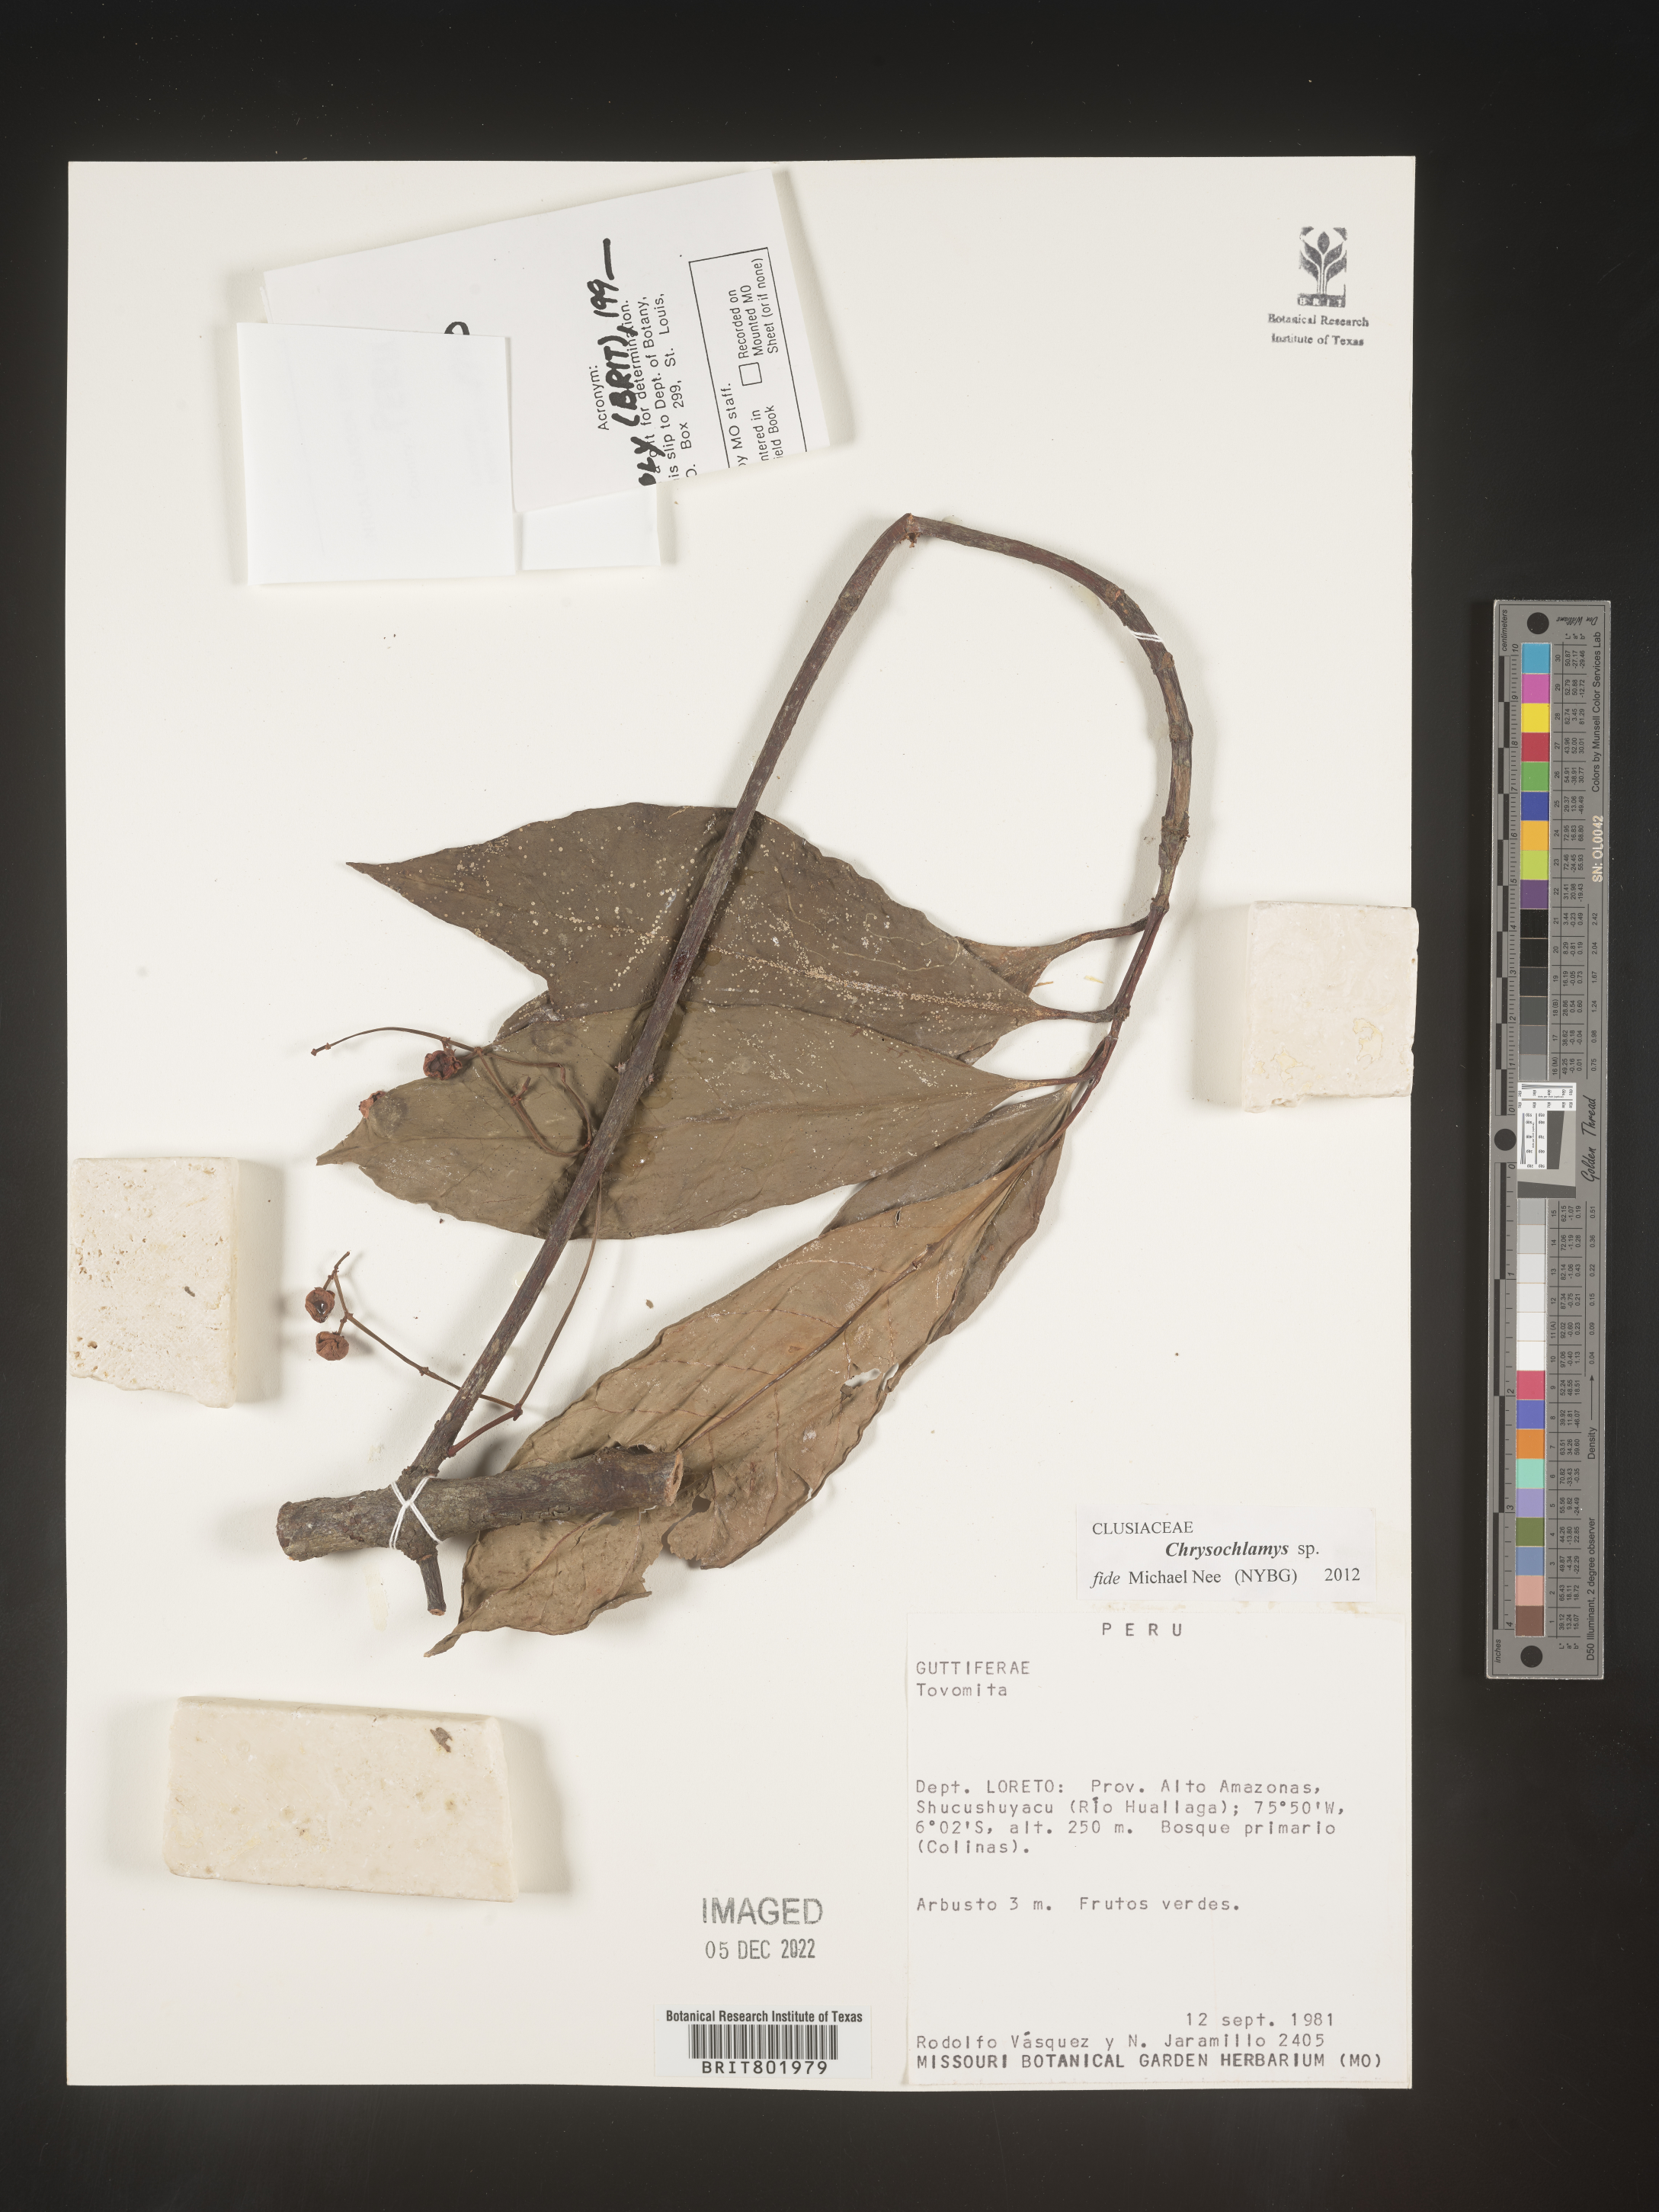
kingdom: Plantae
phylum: Tracheophyta
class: Magnoliopsida
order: Malpighiales
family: Clusiaceae
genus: Chrysochlamys
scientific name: Chrysochlamys
